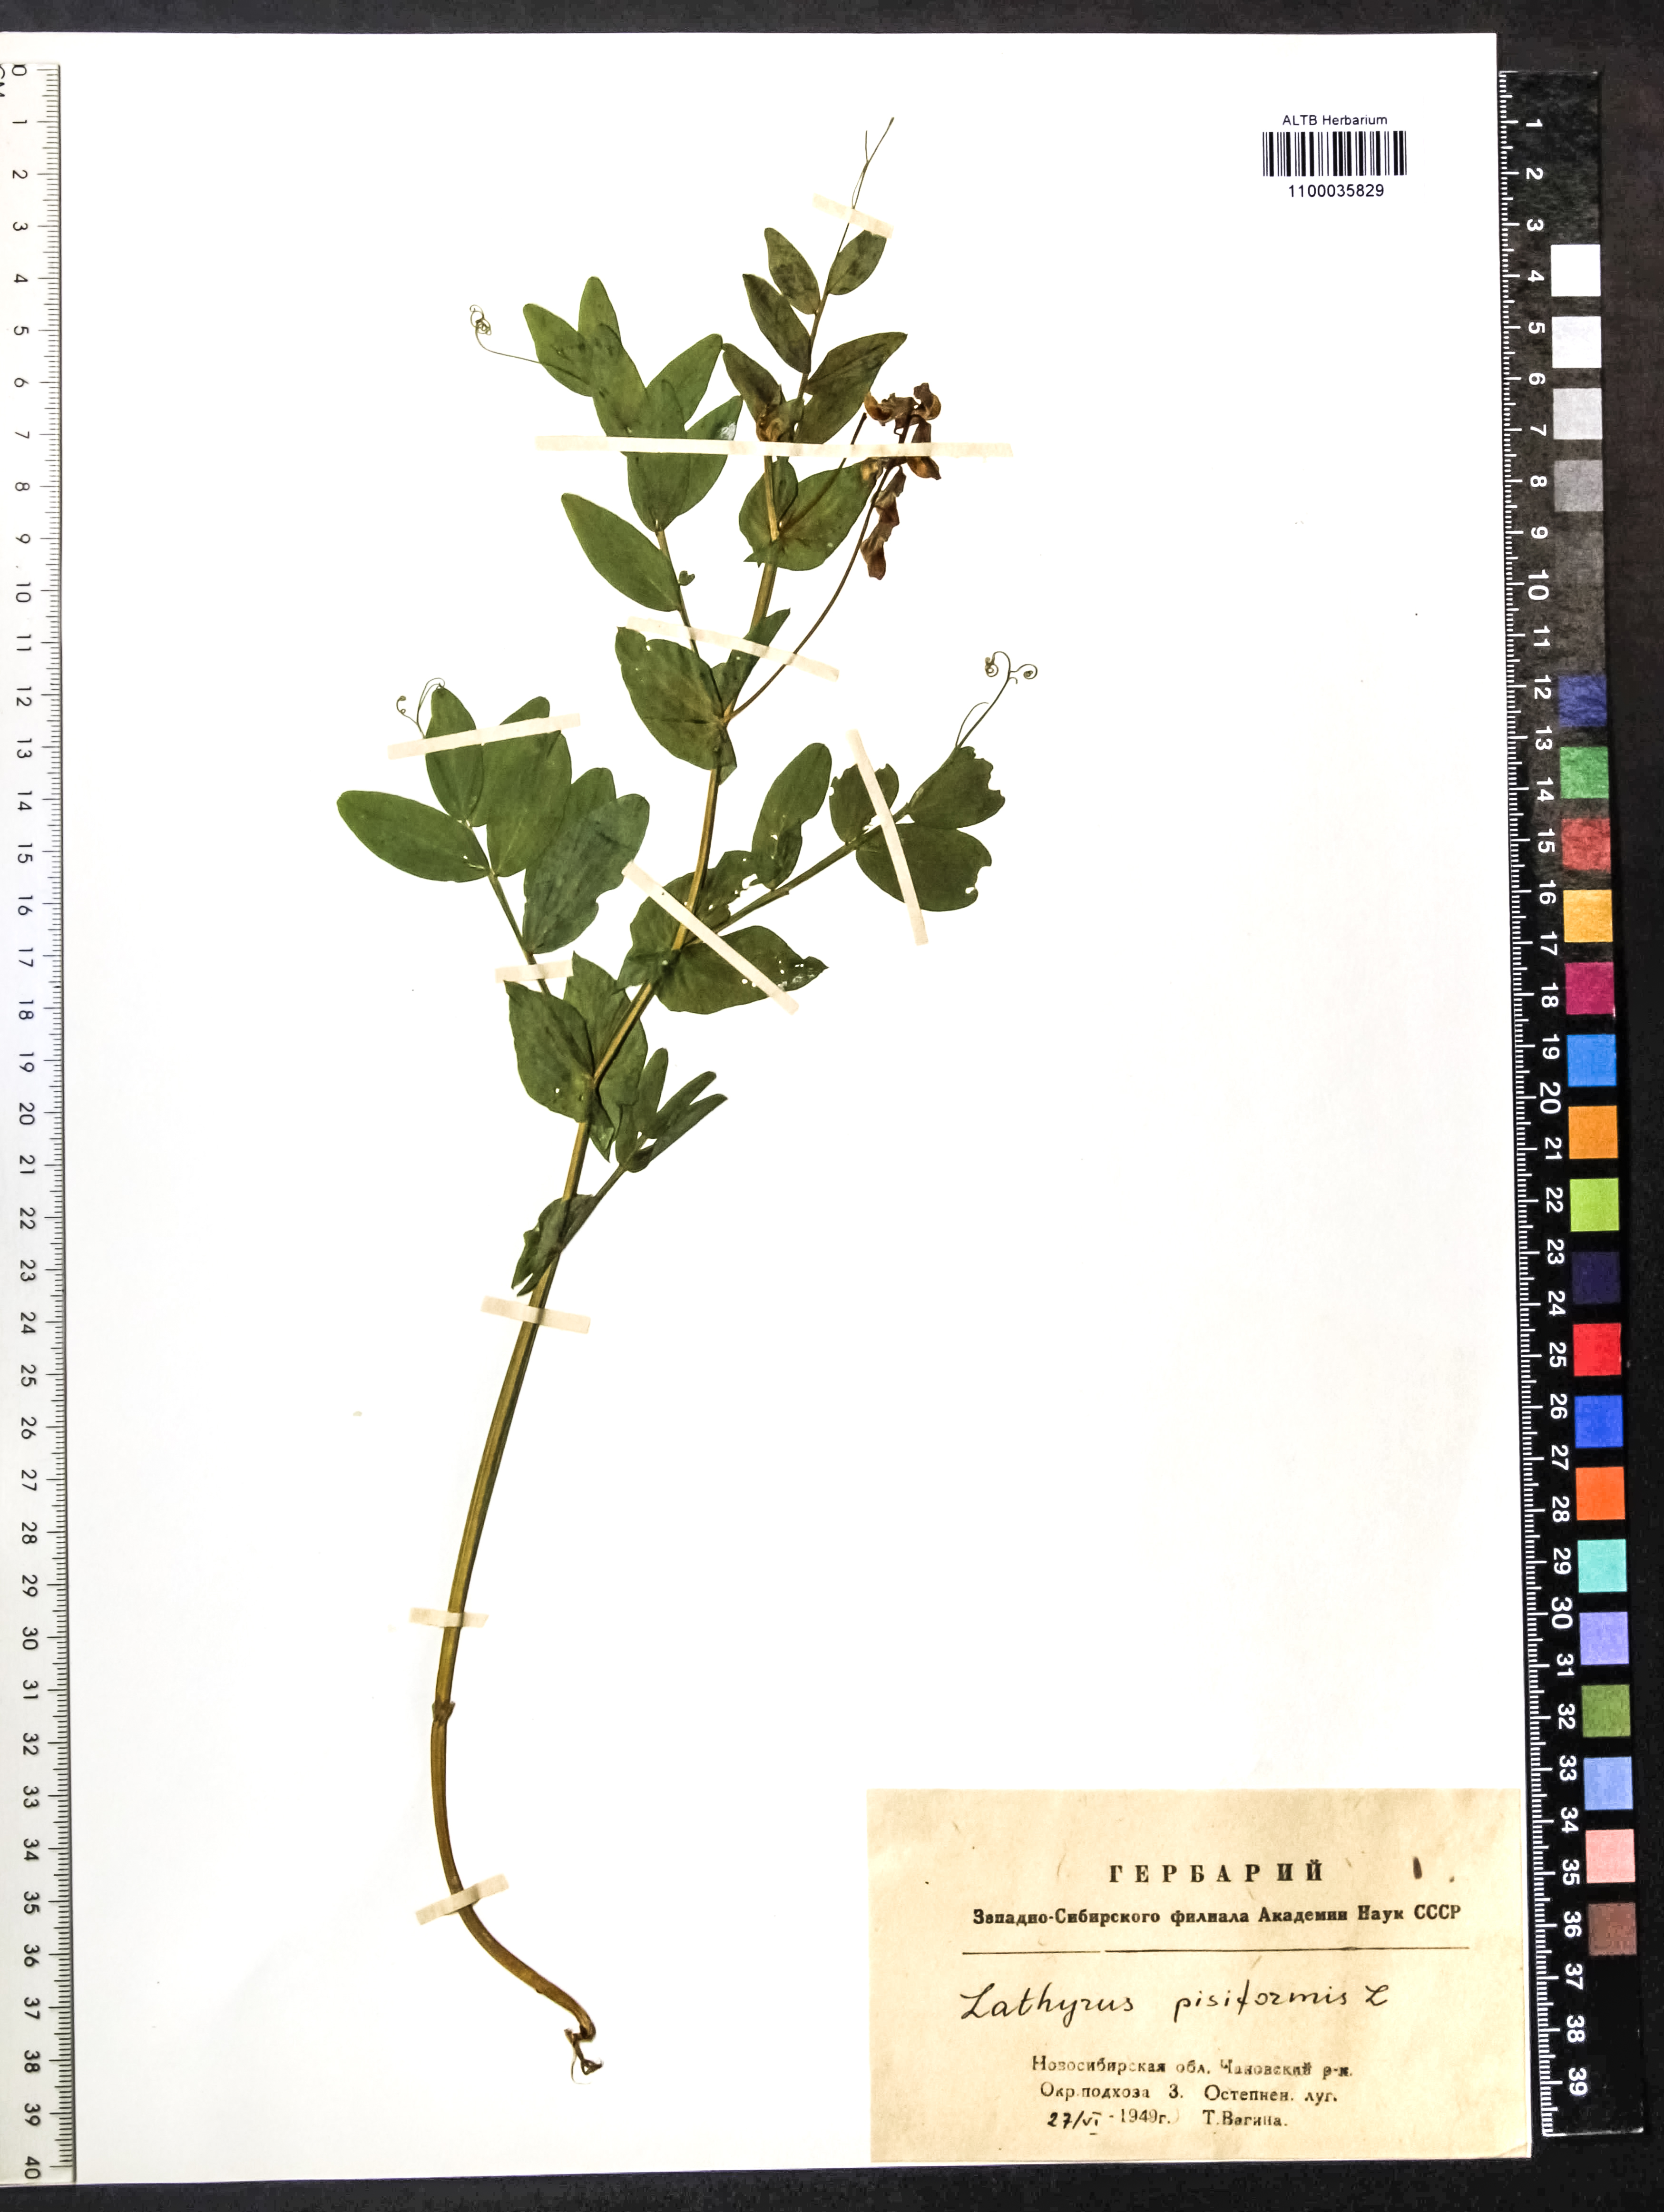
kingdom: Plantae
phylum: Tracheophyta
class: Magnoliopsida
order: Fabales
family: Fabaceae
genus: Lathyrus
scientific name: Lathyrus pisiformis
